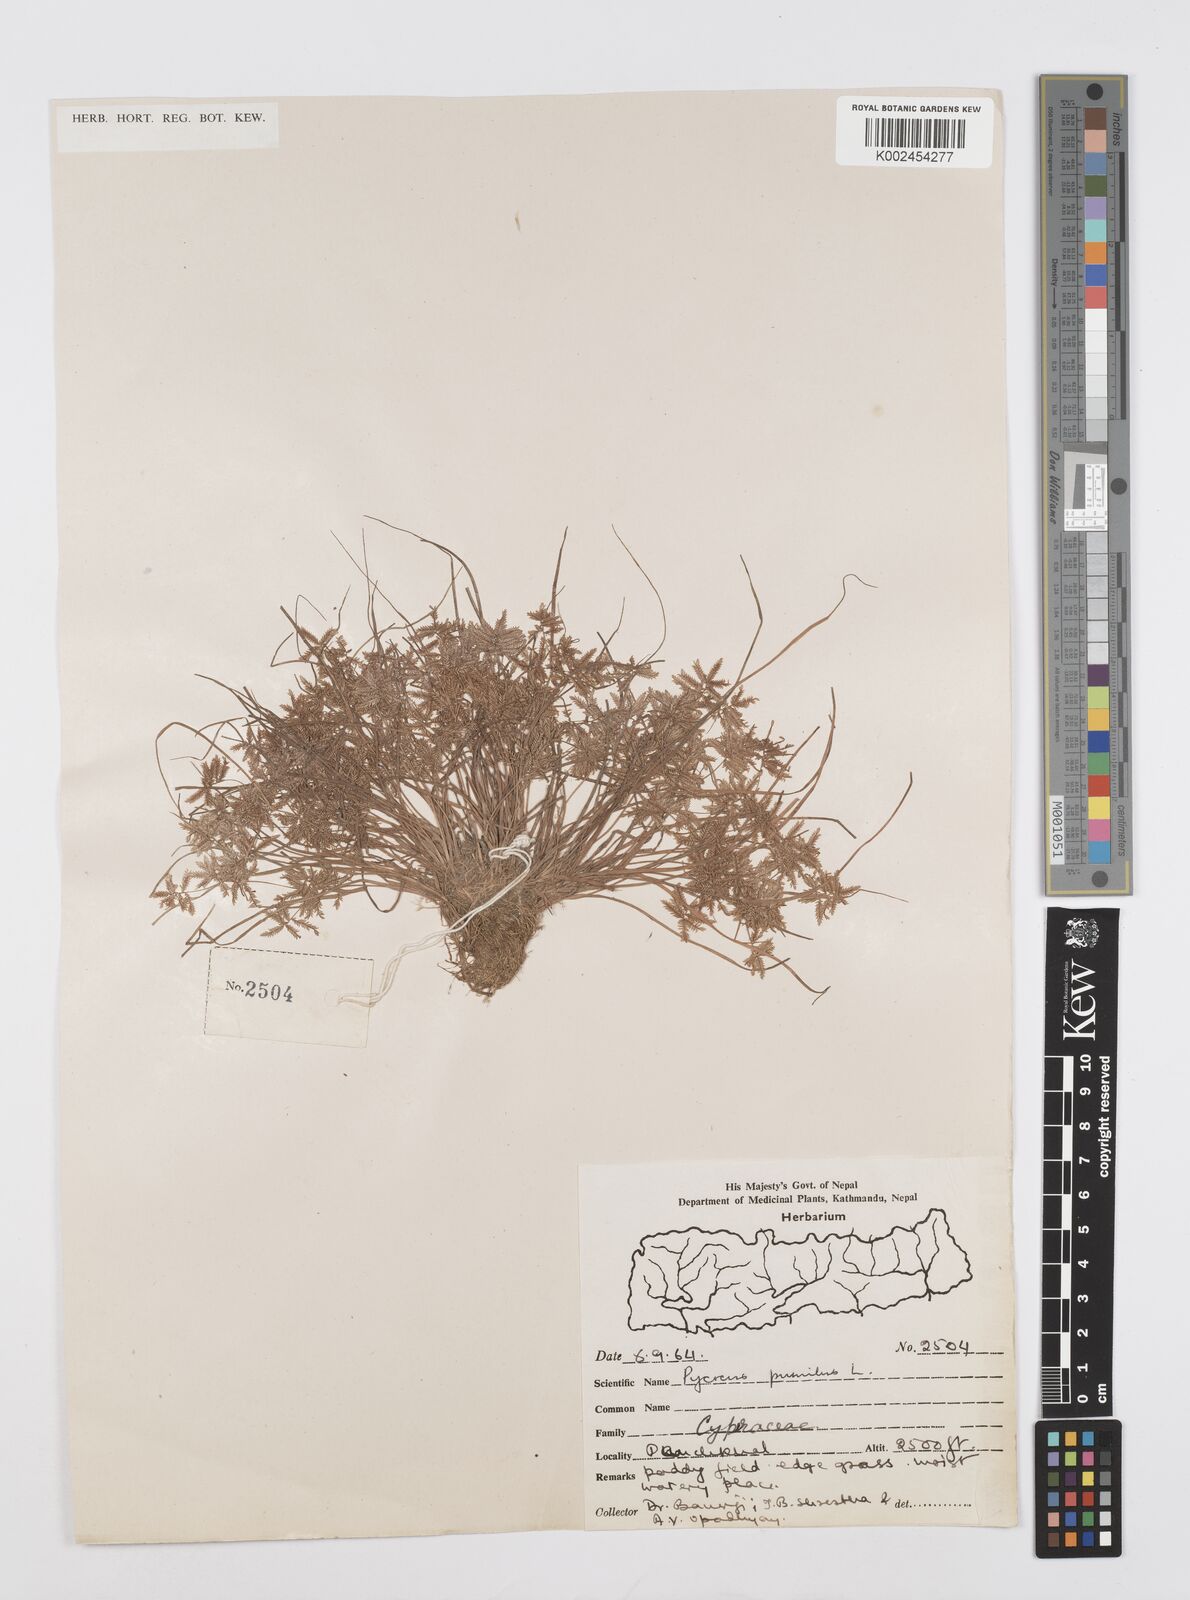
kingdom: Plantae
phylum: Tracheophyta
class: Liliopsida
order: Poales
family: Cyperaceae
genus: Cyperus
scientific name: Cyperus pumilus
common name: Low flatsedge
